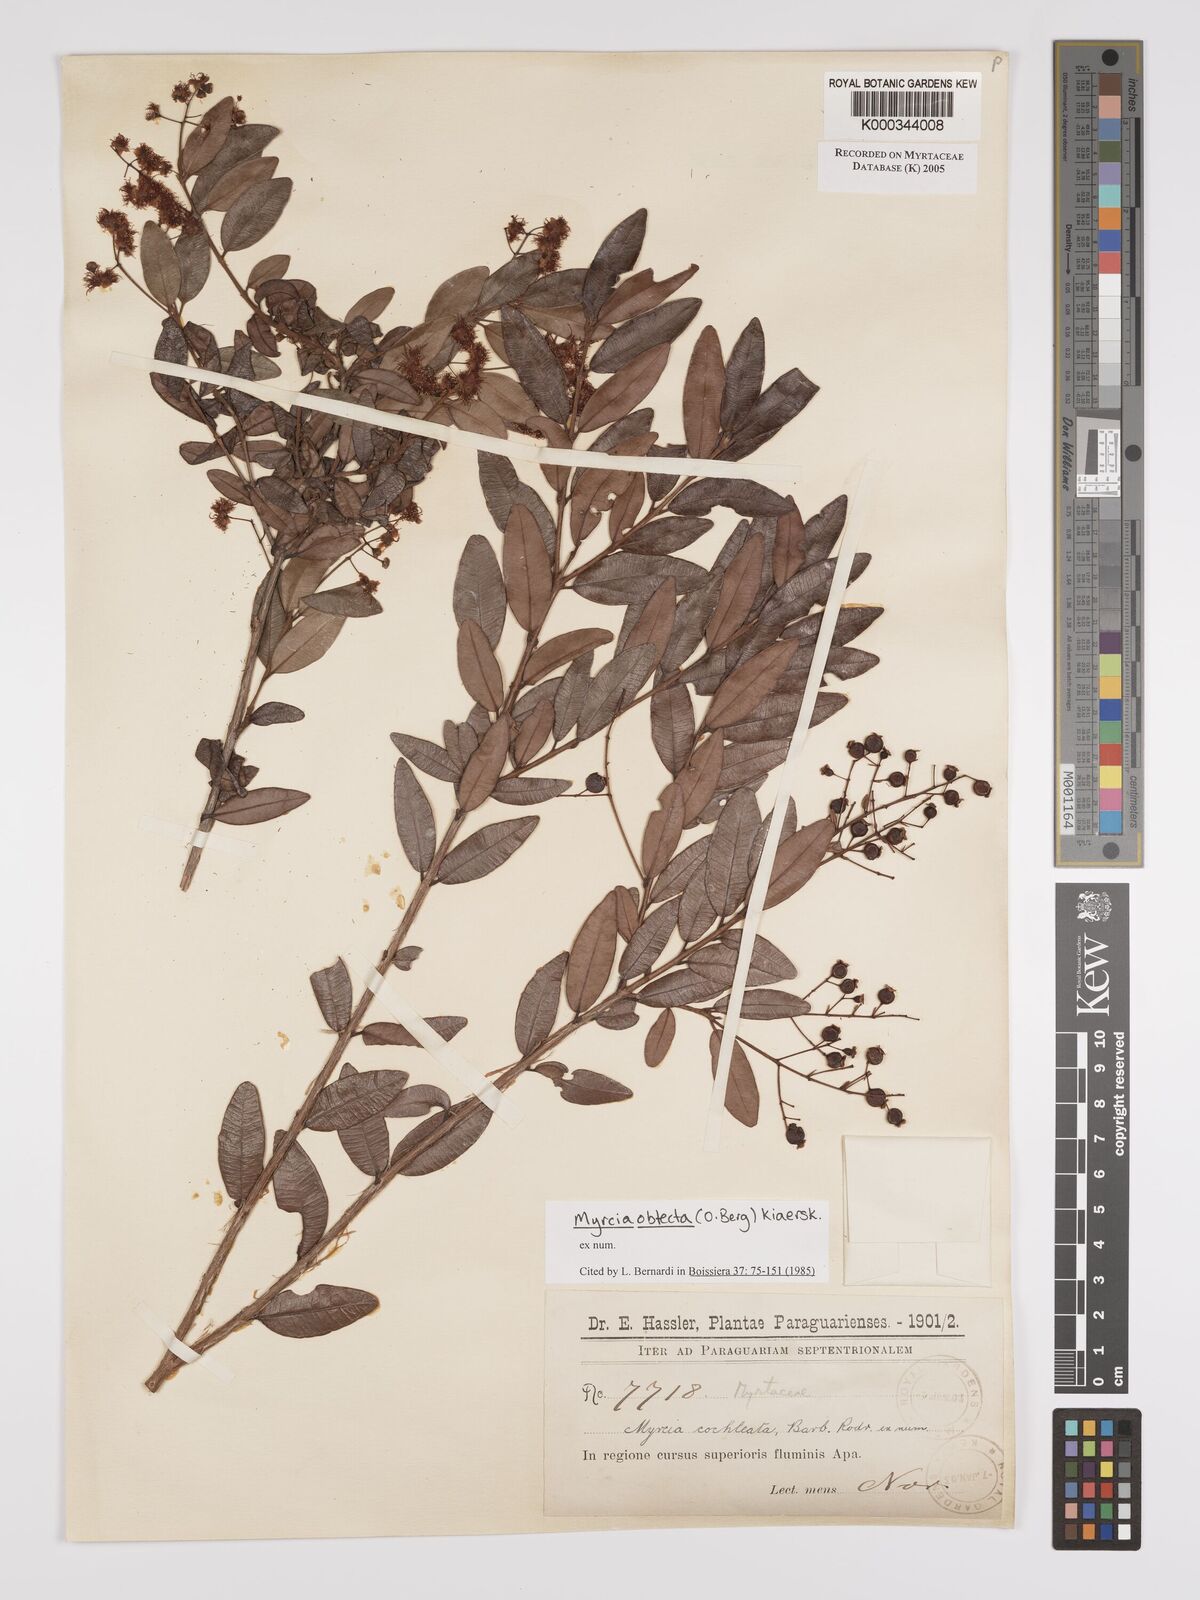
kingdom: Plantae
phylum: Tracheophyta
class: Magnoliopsida
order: Myrtales
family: Myrtaceae
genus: Myrcia
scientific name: Myrcia guianensis
